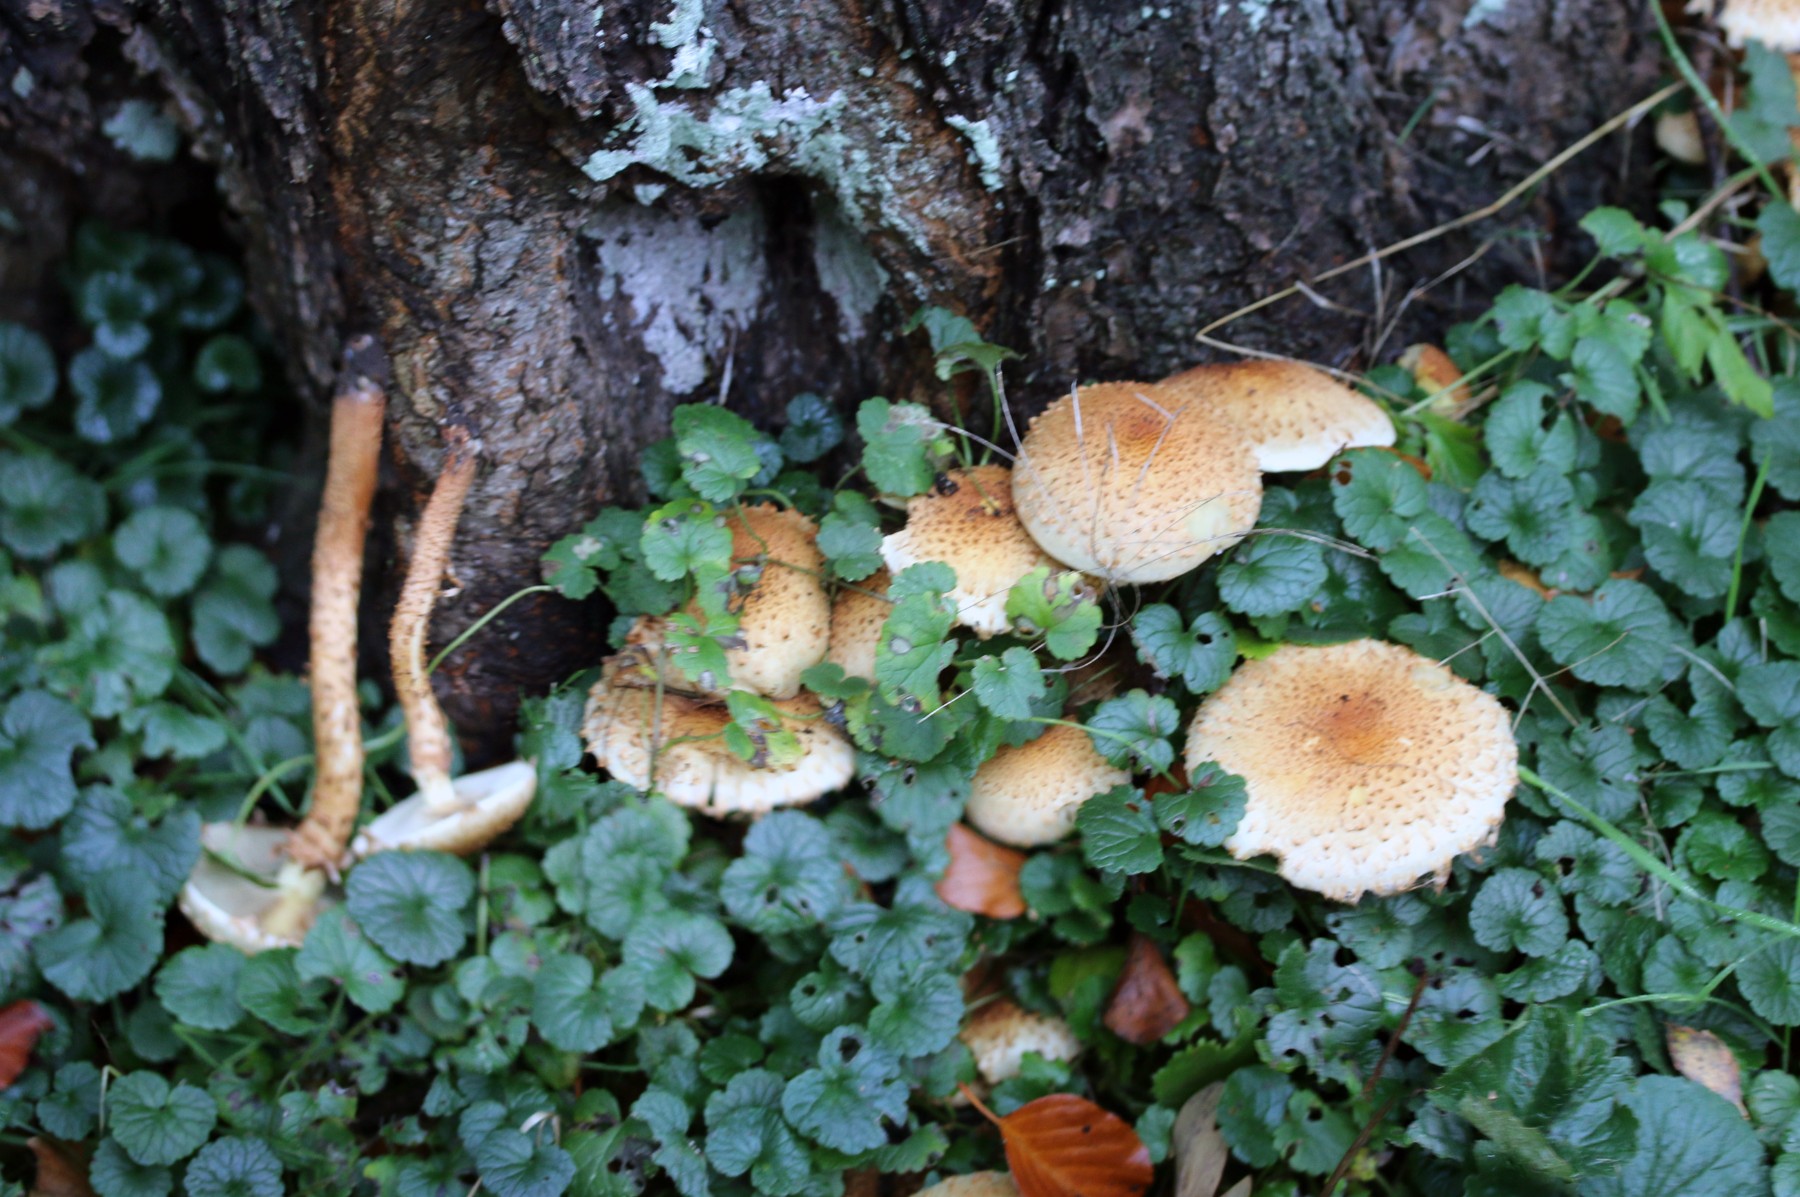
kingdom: Fungi
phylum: Basidiomycota
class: Agaricomycetes
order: Agaricales
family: Strophariaceae
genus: Pholiota
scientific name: Pholiota squarrosa
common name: krumskællet skælhat
